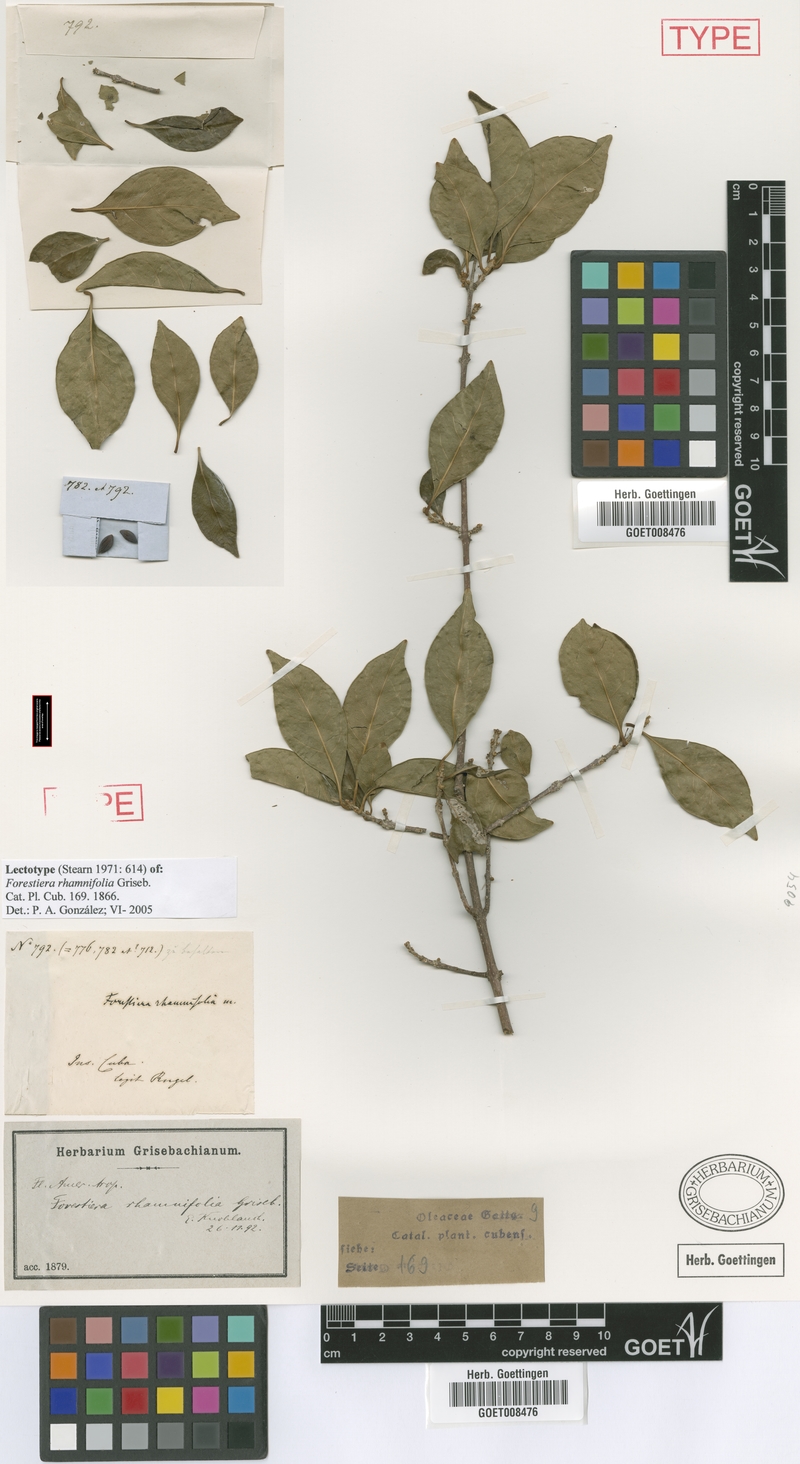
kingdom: Plantae
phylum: Tracheophyta
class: Magnoliopsida
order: Lamiales
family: Oleaceae
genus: Forestiera
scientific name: Forestiera rhamnifolia
